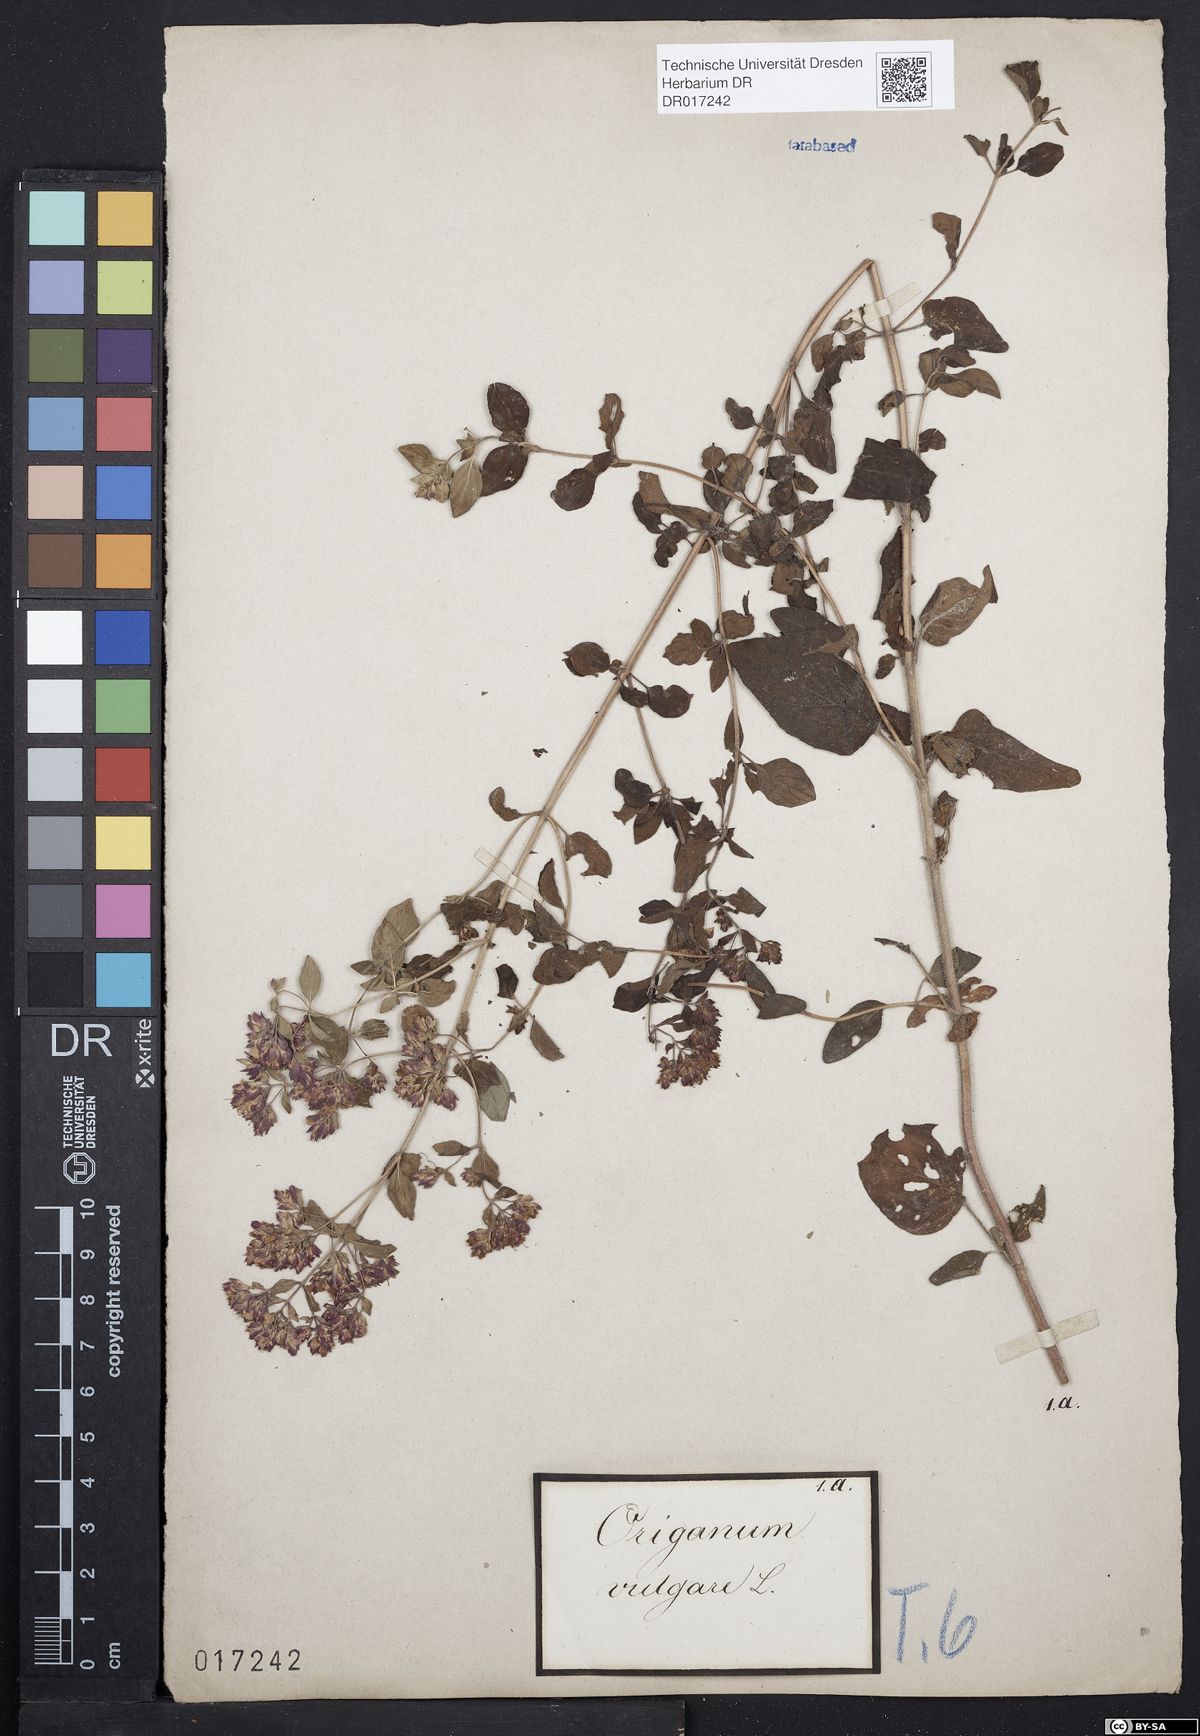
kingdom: Plantae
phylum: Tracheophyta
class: Magnoliopsida
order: Lamiales
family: Lamiaceae
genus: Origanum
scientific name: Origanum vulgare
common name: Wild marjoram
